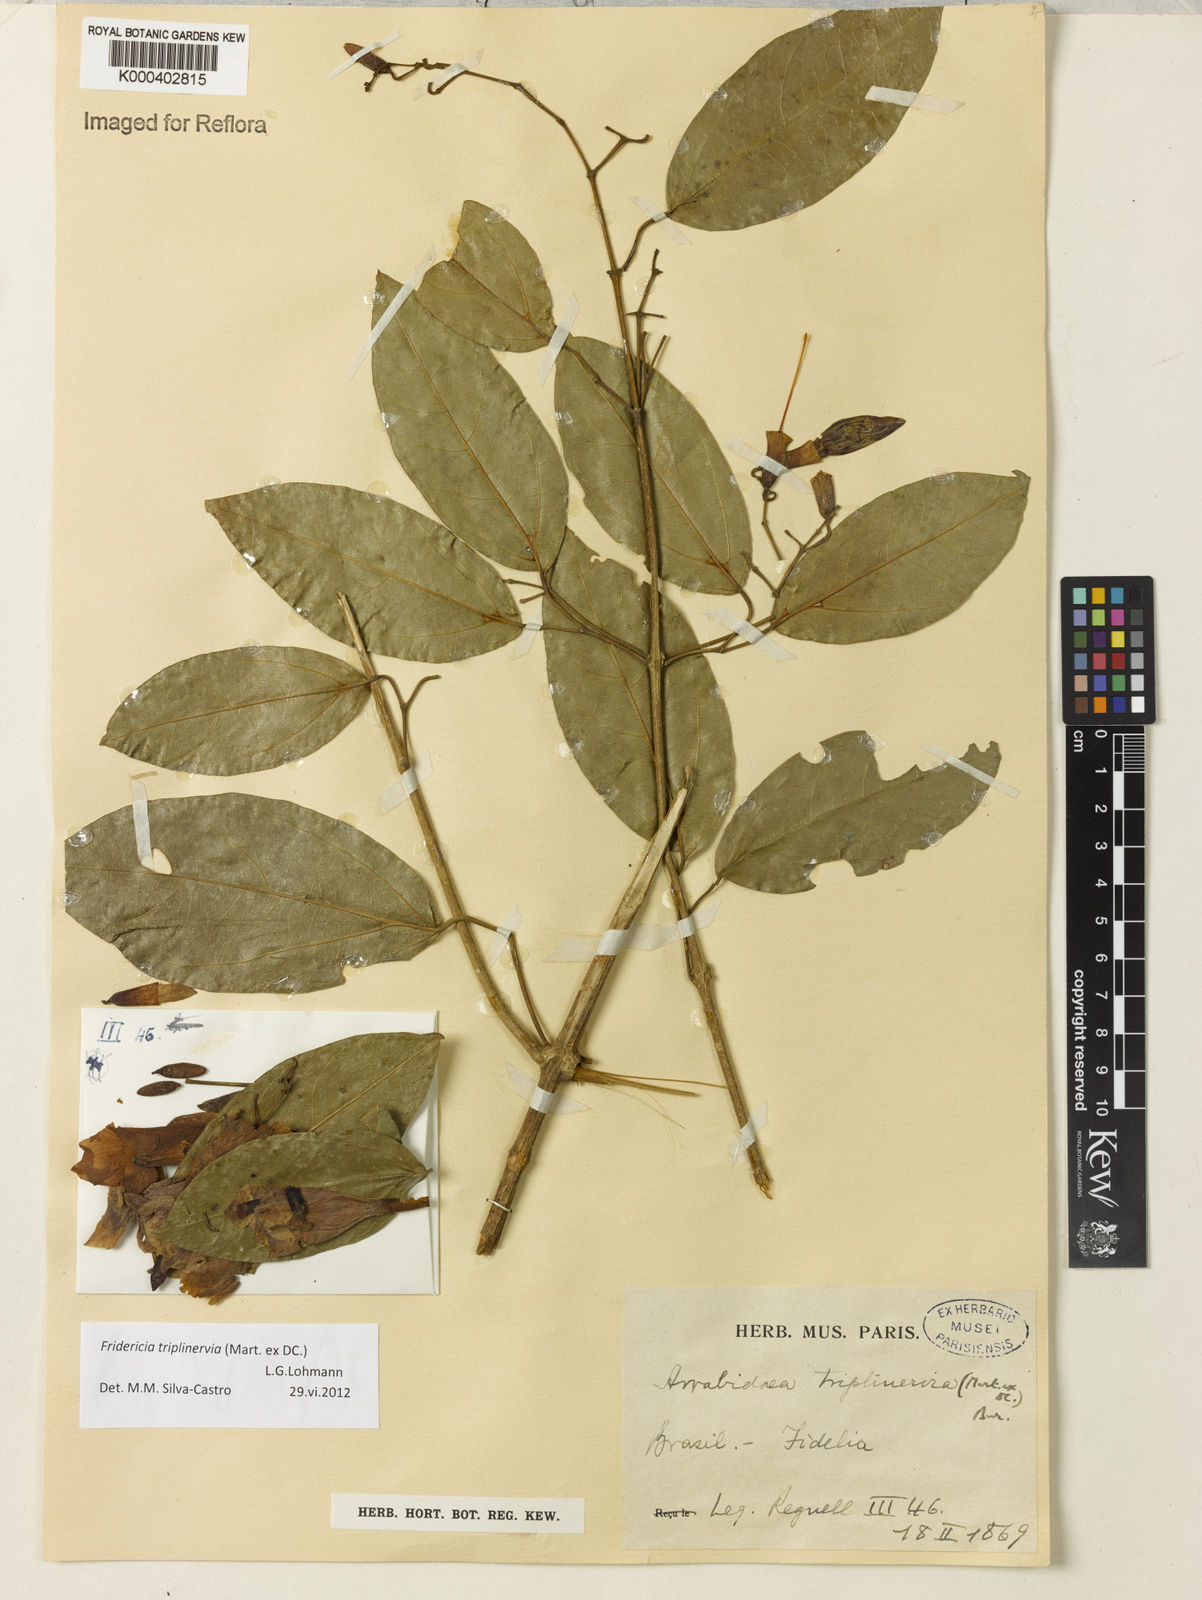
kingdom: Plantae
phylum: Tracheophyta
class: Magnoliopsida
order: Lamiales
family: Bignoniaceae
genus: Fridericia
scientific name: Fridericia triplinervia
